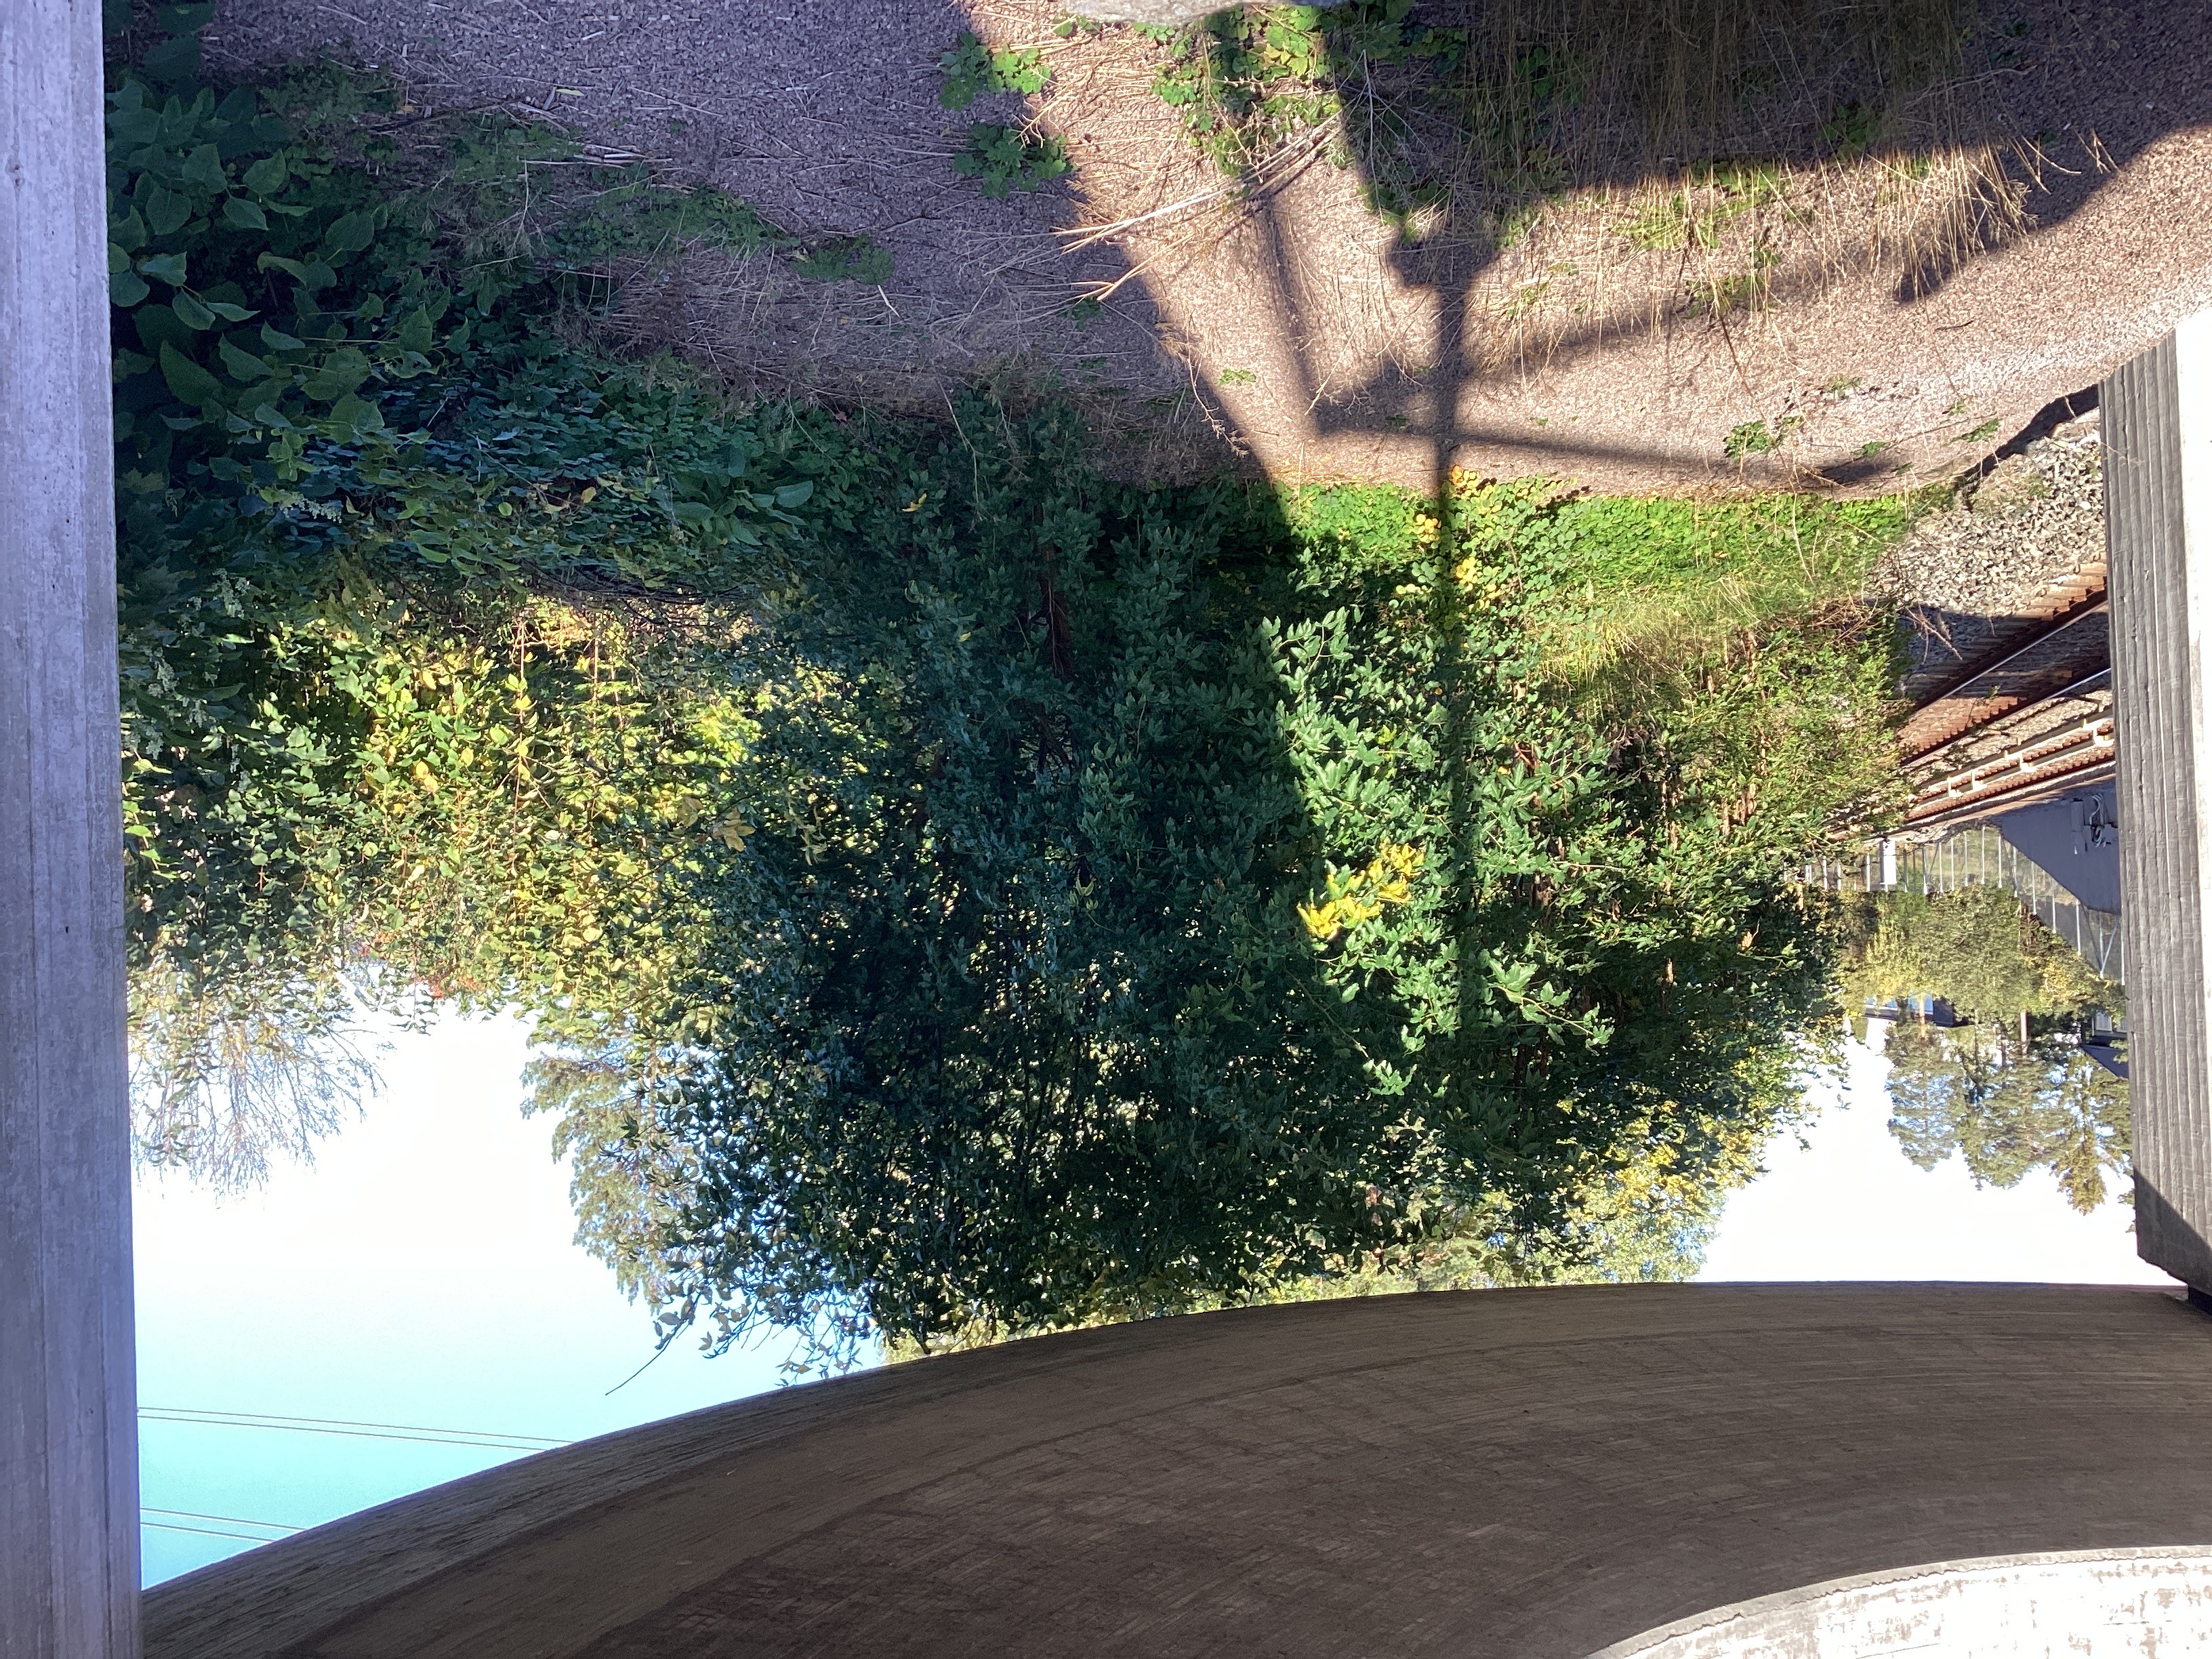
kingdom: Plantae
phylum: Tracheophyta
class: Magnoliopsida
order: Fabales
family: Fabaceae
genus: Laburnum
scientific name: Laburnum anagyroides
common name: gullregn
